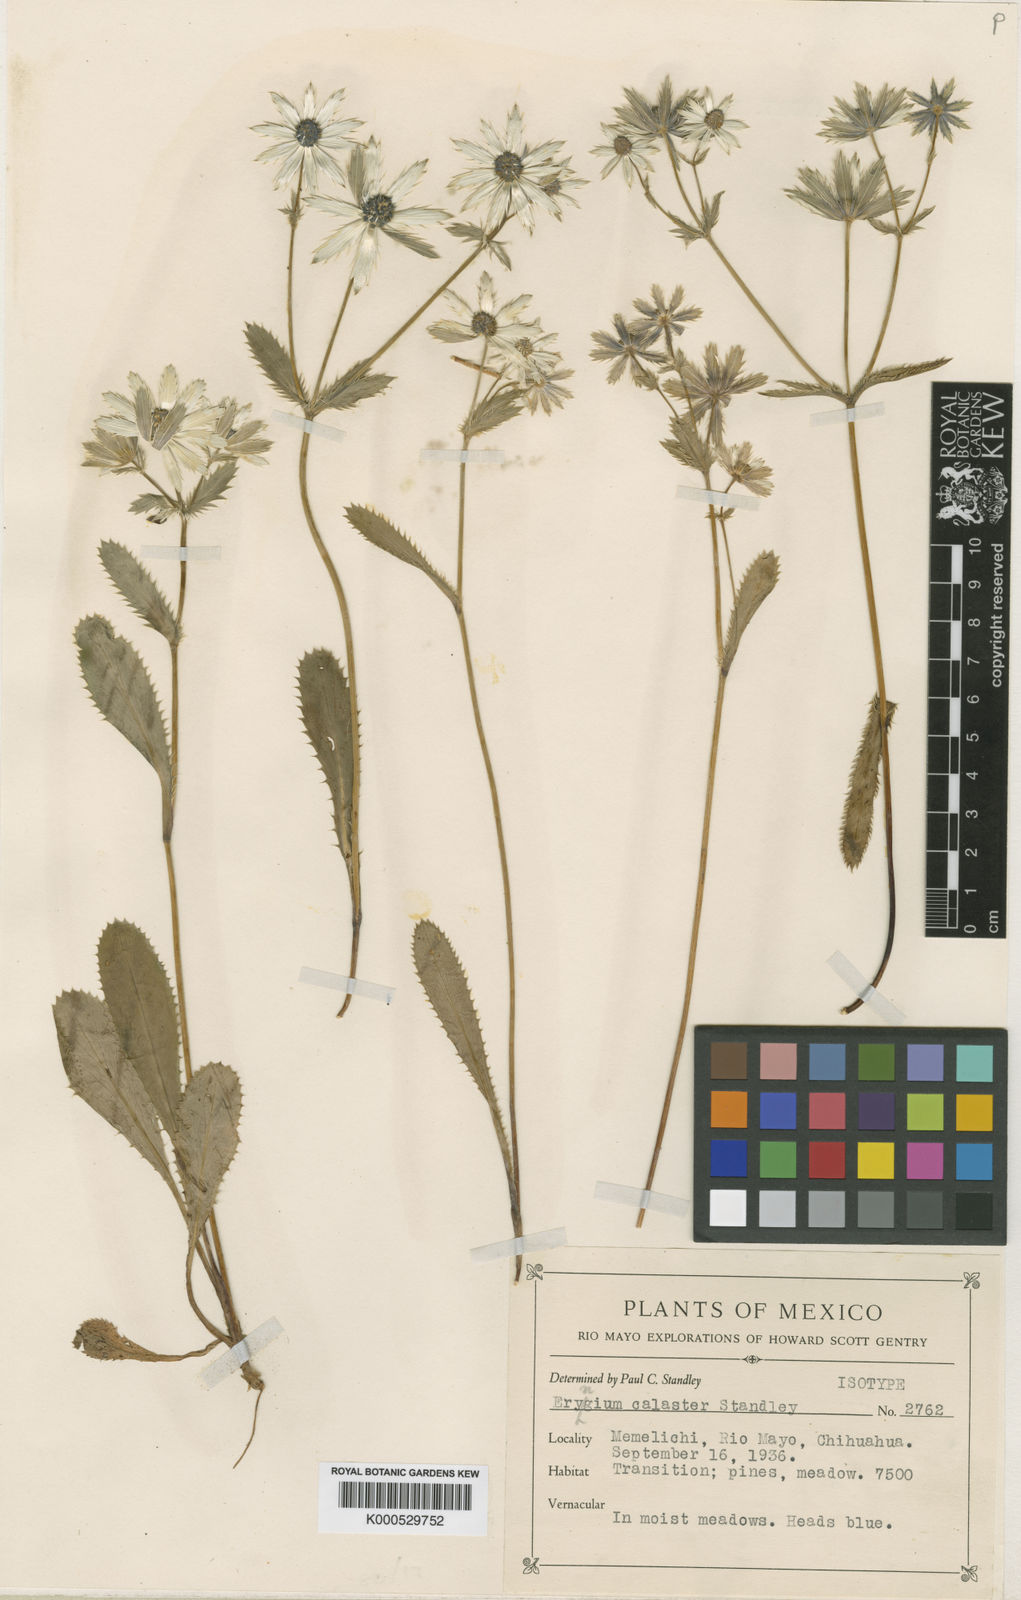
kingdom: Plantae
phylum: Tracheophyta
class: Magnoliopsida
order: Apiales
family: Apiaceae
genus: Eryngium
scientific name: Eryngium lemmonii
